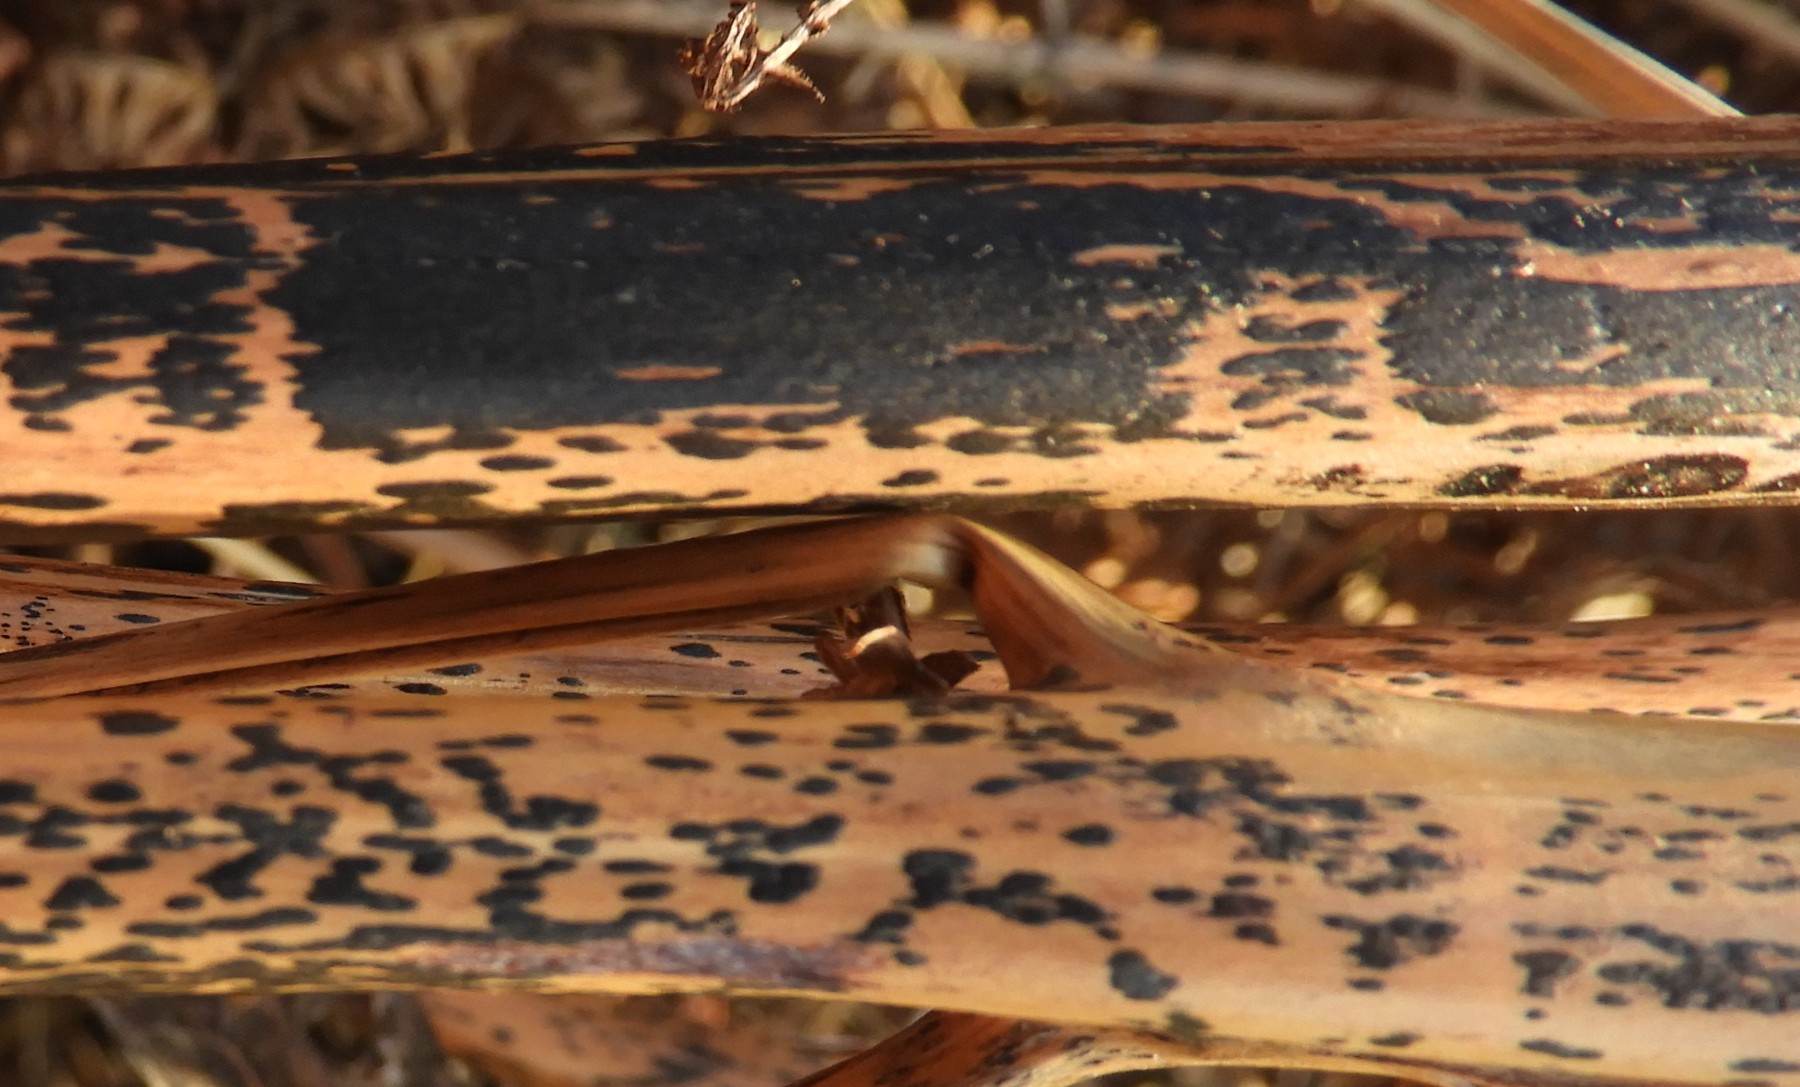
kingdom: Fungi
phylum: Ascomycota
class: Dothideomycetes
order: Pleosporales
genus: Rhopographus
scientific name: Rhopographus filicinus
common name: Bracken map
